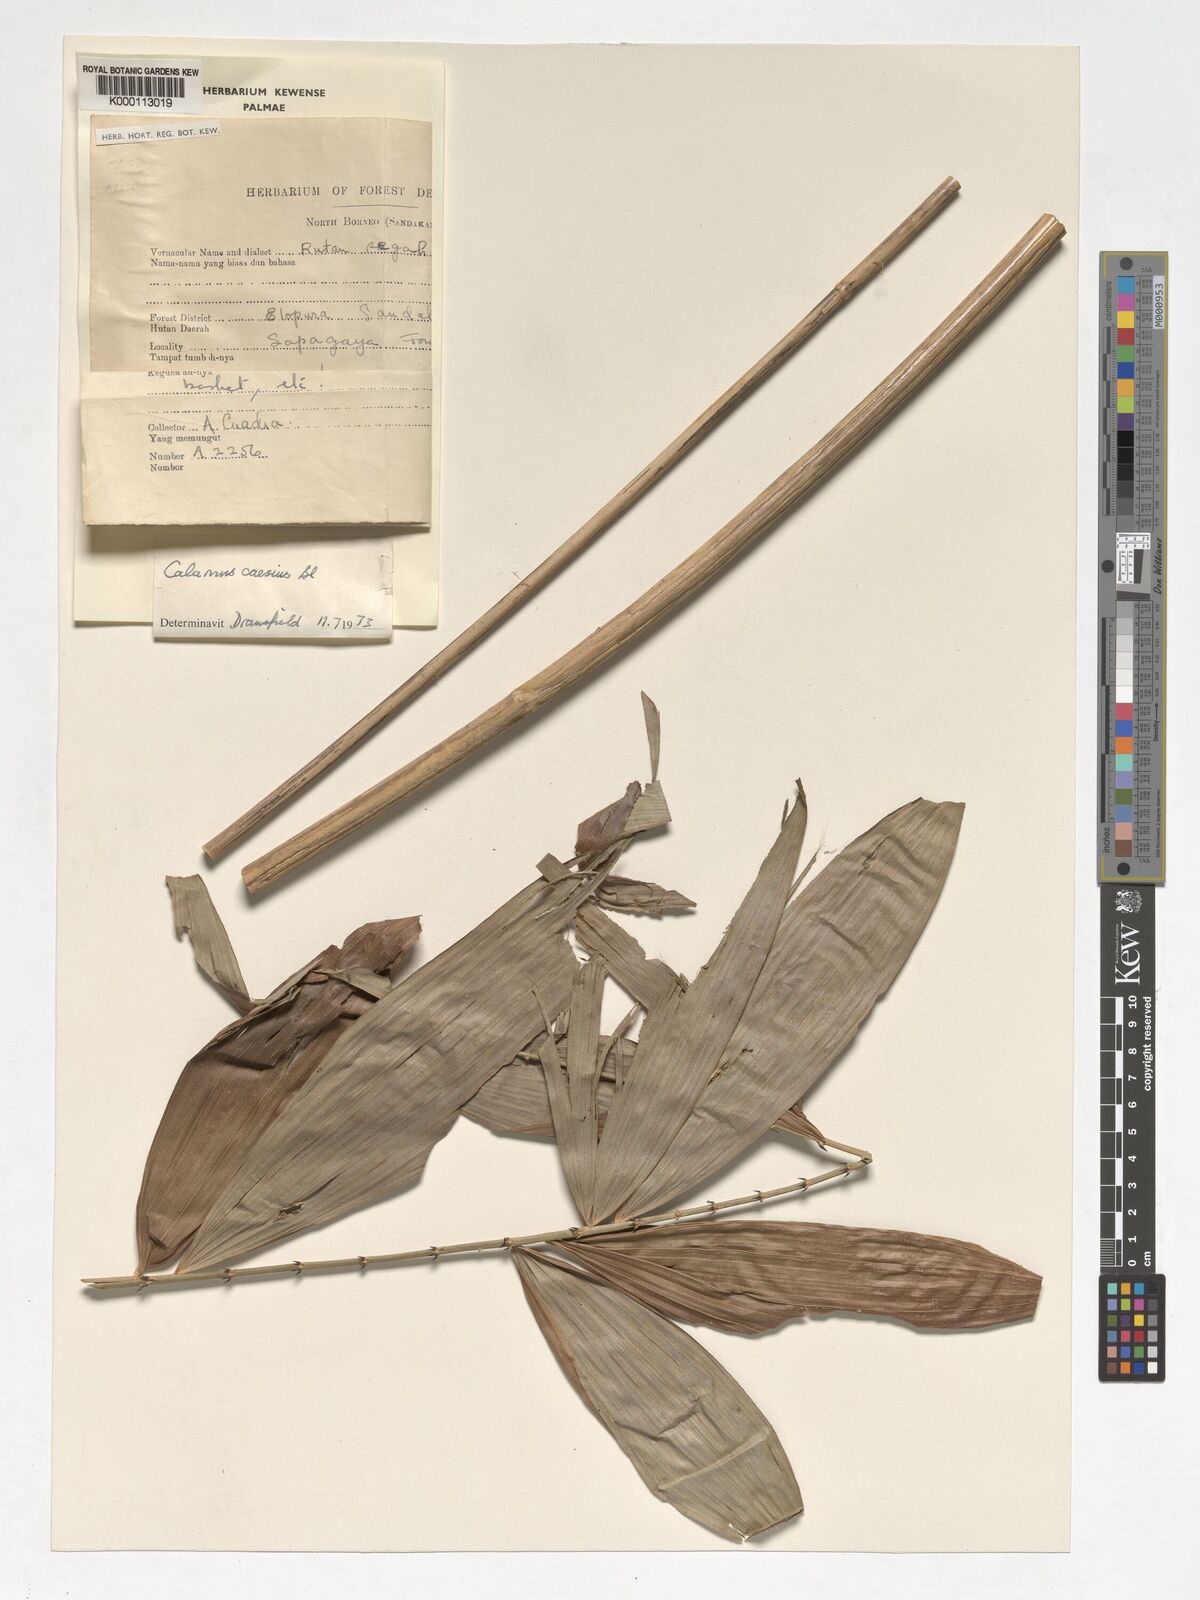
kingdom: Plantae
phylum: Tracheophyta
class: Liliopsida
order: Arecales
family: Arecaceae
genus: Calamus
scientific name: Calamus caesius
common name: Rattan palm
